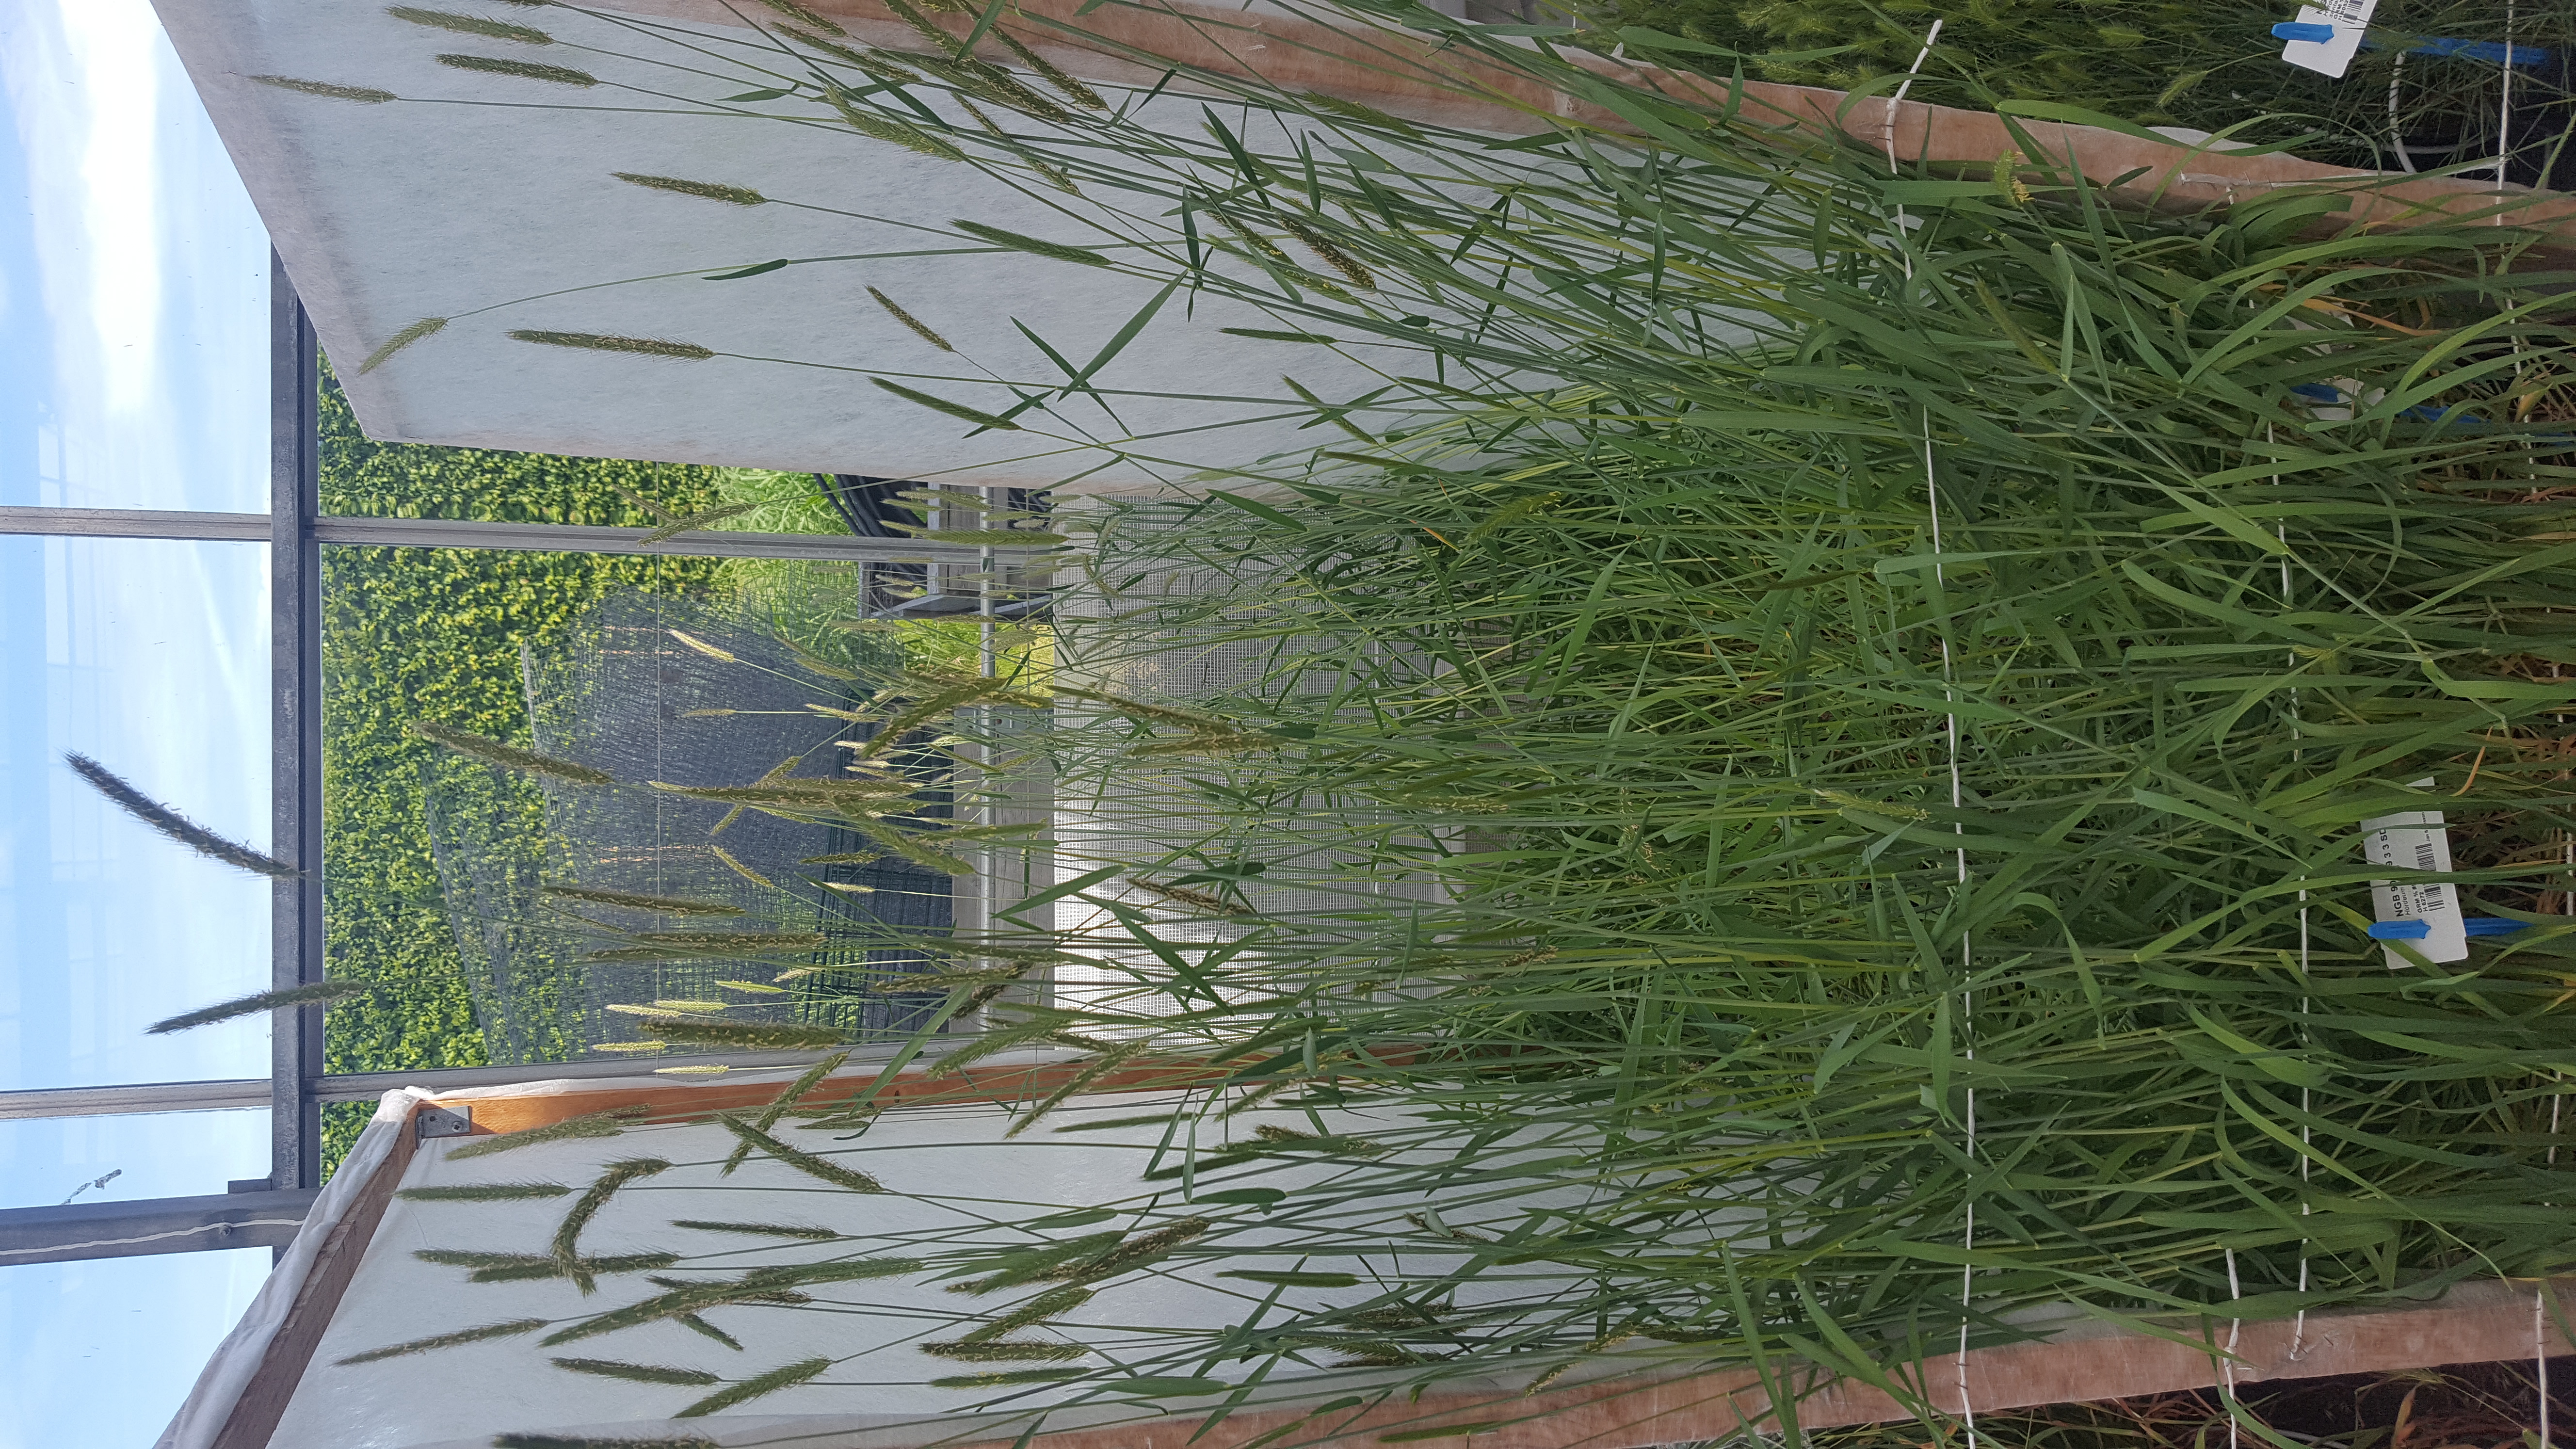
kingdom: Plantae
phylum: Tracheophyta
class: Liliopsida
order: Poales
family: Poaceae
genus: Hordeum
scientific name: Hordeum parodii
